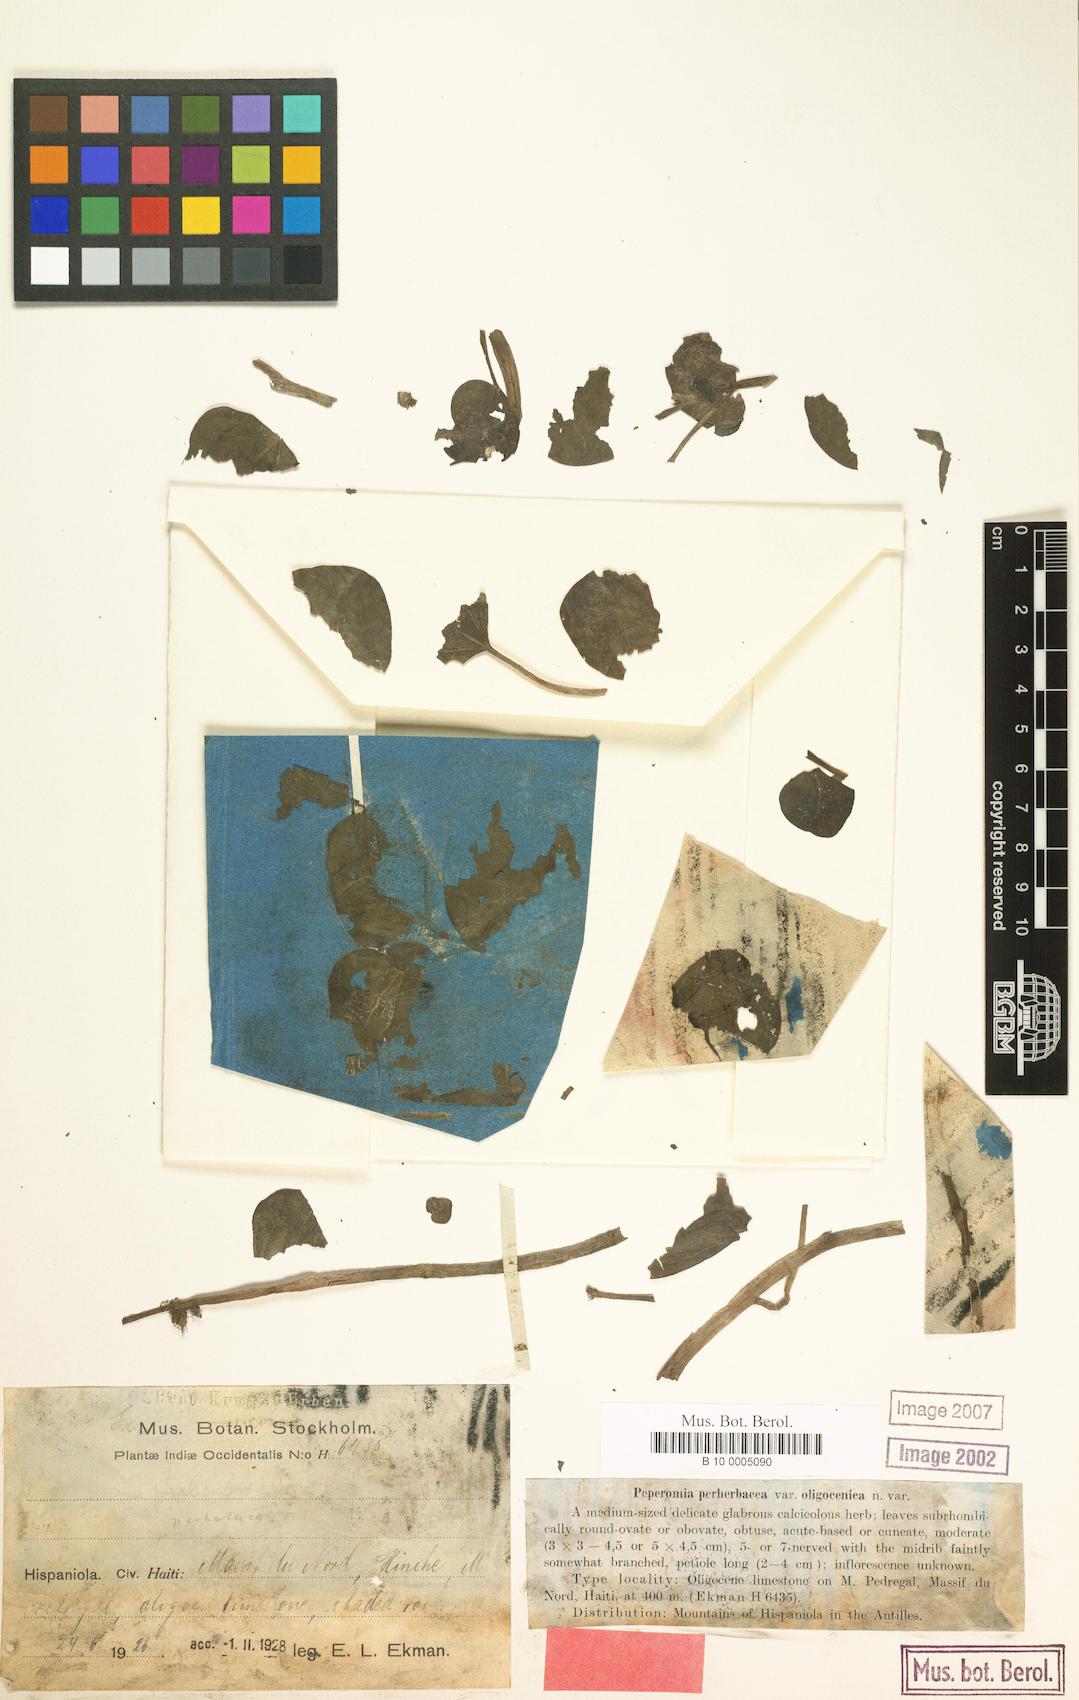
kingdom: Plantae
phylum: Tracheophyta
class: Magnoliopsida
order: Piperales
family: Piperaceae
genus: Peperomia
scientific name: Peperomia perherbacea
